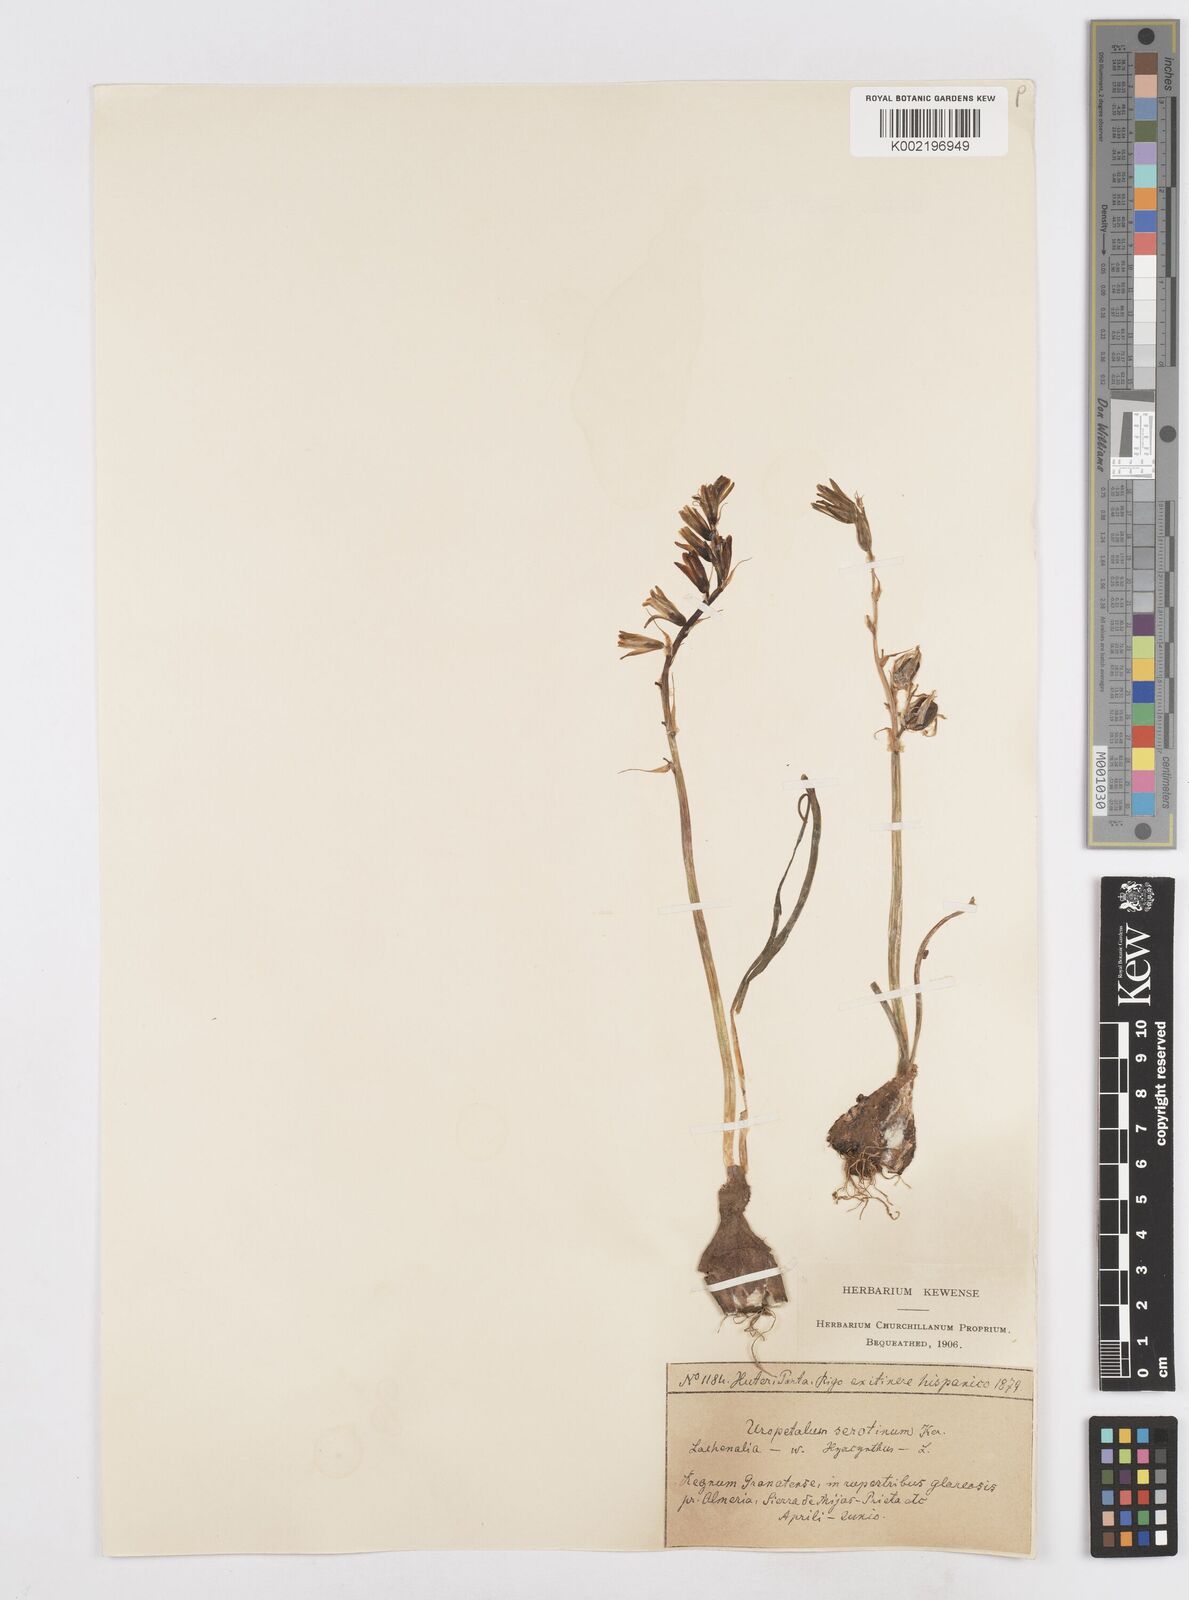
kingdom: Plantae
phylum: Tracheophyta
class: Liliopsida
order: Asparagales
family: Asparagaceae
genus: Dipcadi
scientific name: Dipcadi serotinum
